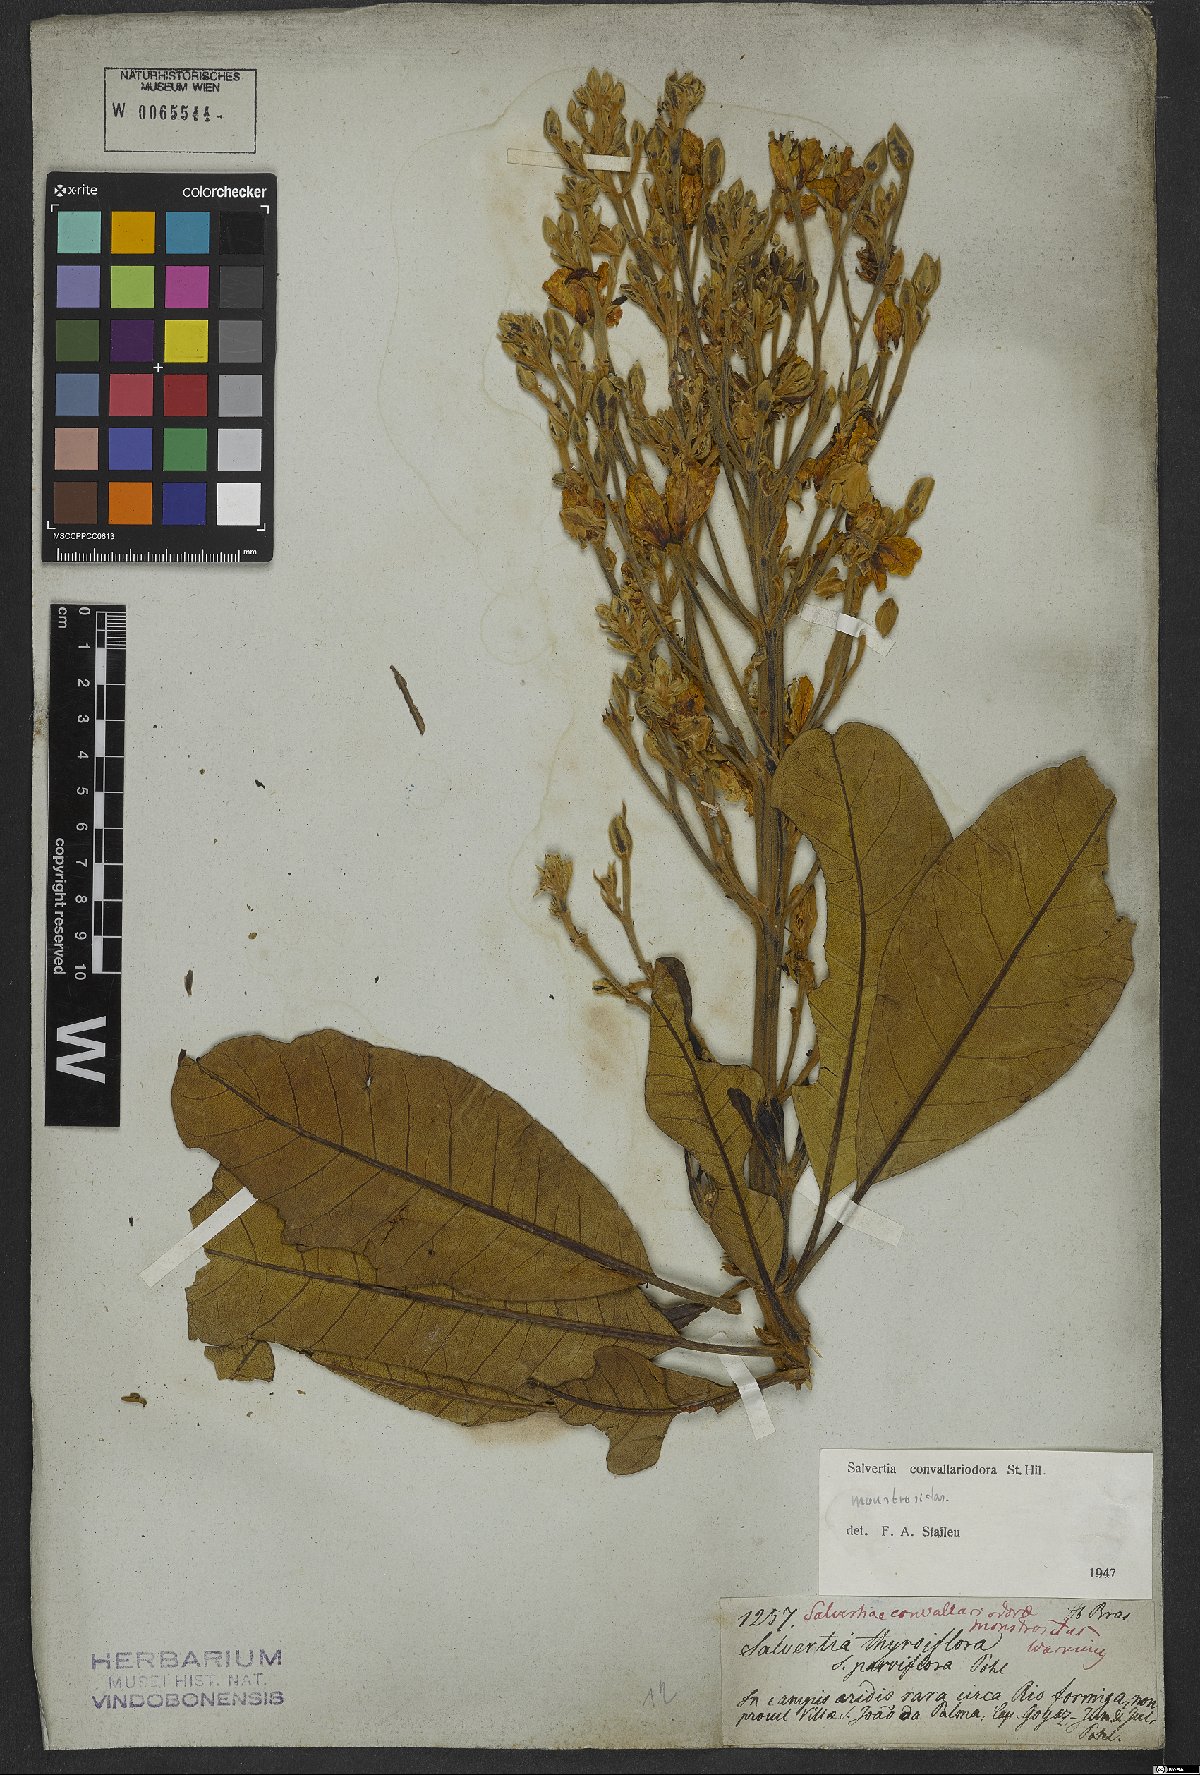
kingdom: Plantae
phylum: Tracheophyta
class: Magnoliopsida
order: Myrtales
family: Vochysiaceae
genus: Salvertia
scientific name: Salvertia convallariodora
